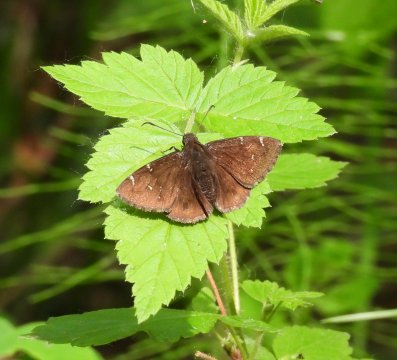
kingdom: Animalia
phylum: Arthropoda
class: Insecta
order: Lepidoptera
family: Hesperiidae
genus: Autochton
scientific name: Autochton
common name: Northern Cloudywing
